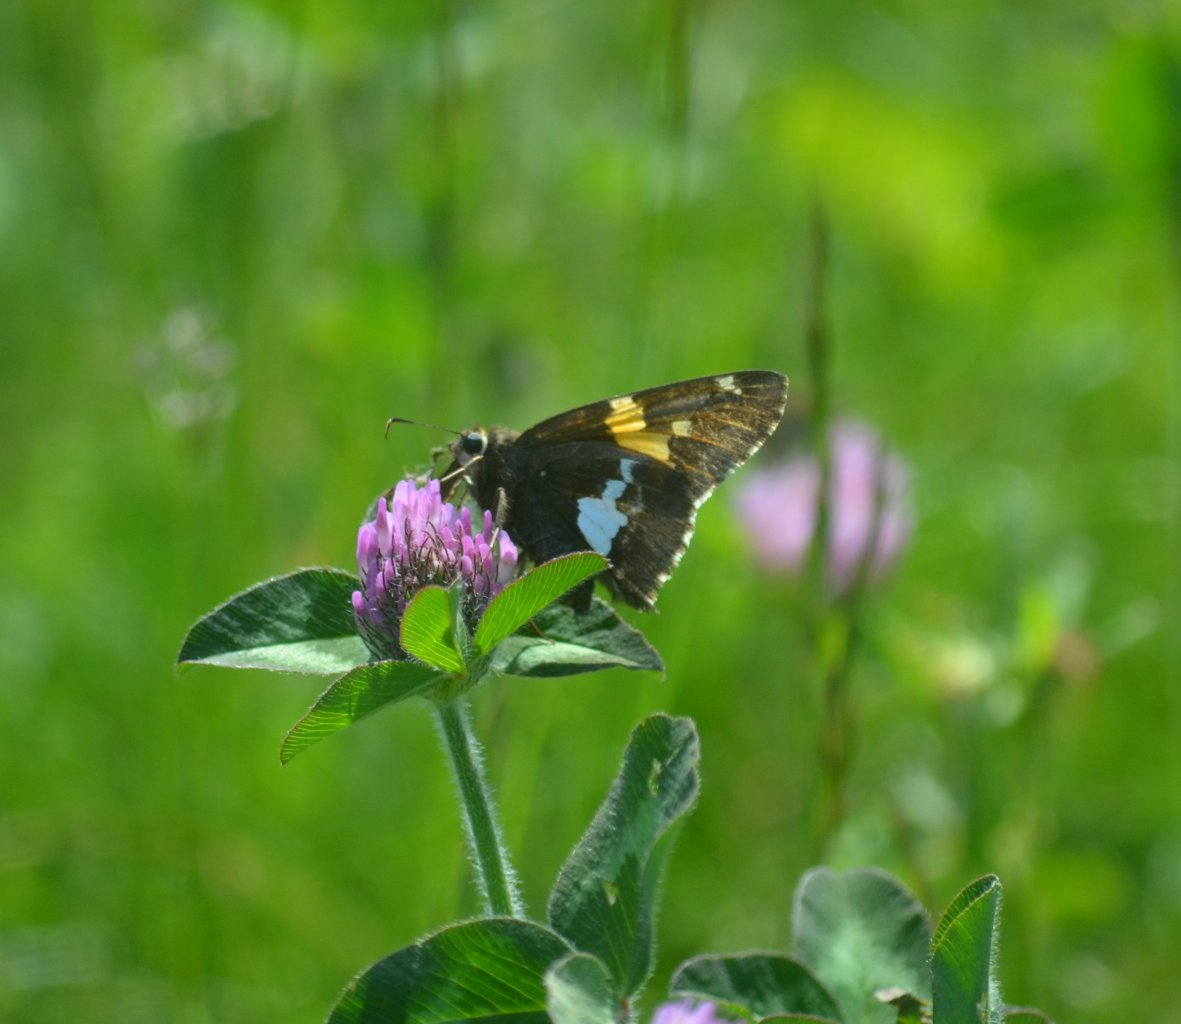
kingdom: Animalia
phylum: Arthropoda
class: Insecta
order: Lepidoptera
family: Hesperiidae
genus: Epargyreus
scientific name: Epargyreus clarus
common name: Silver-spotted Skipper
